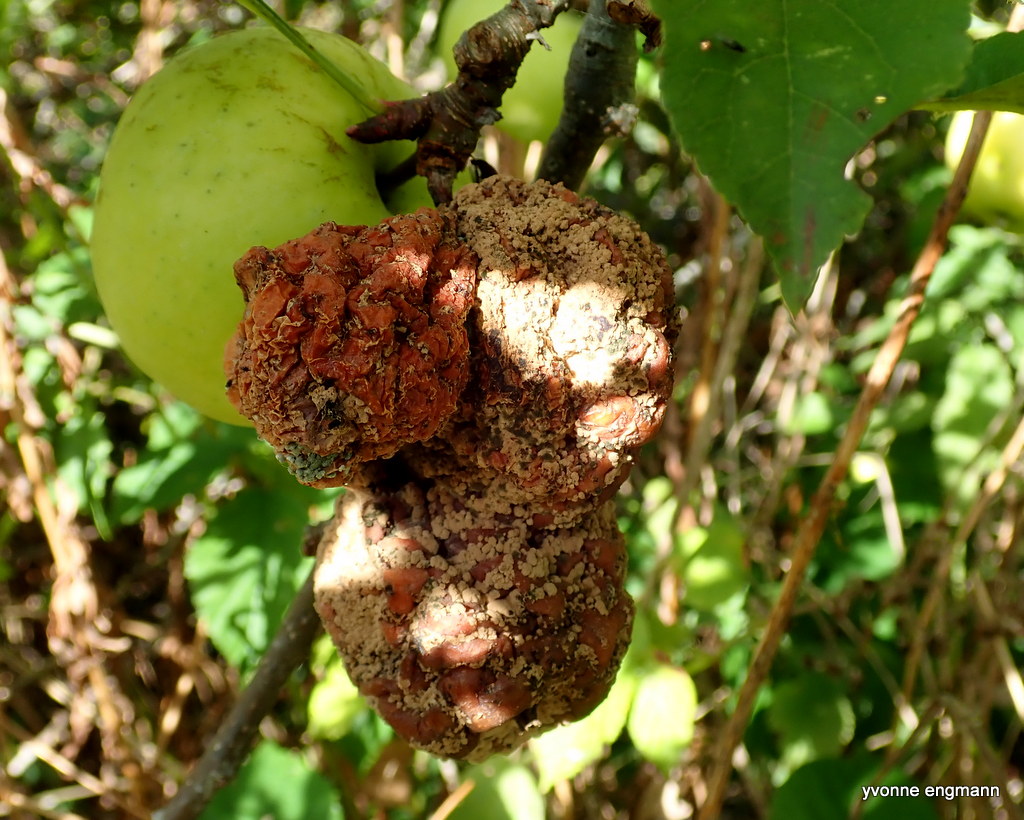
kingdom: Fungi
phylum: Ascomycota
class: Leotiomycetes
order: Helotiales
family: Sclerotiniaceae
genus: Monilinia
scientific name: Monilinia fructigena
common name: æble-knoldskive
